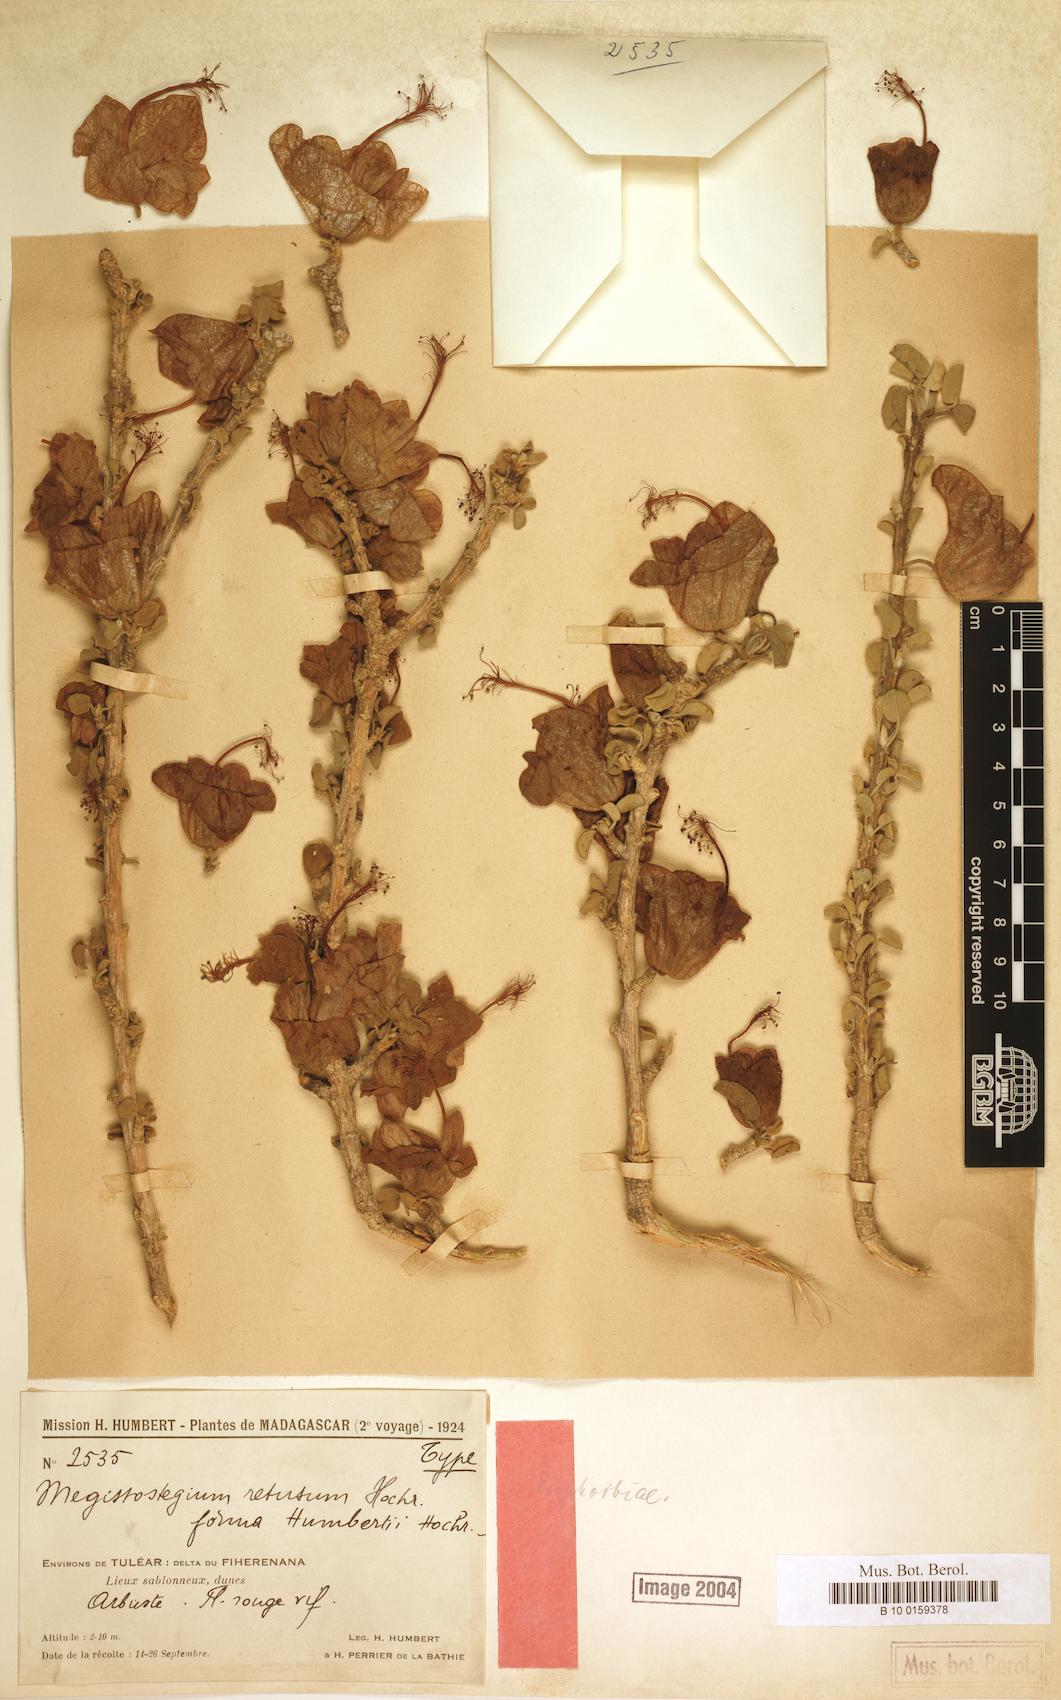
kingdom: Plantae
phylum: Tracheophyta
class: Magnoliopsida
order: Malvales
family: Malvaceae
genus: Megistostegium
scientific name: Megistostegium nodulosum
